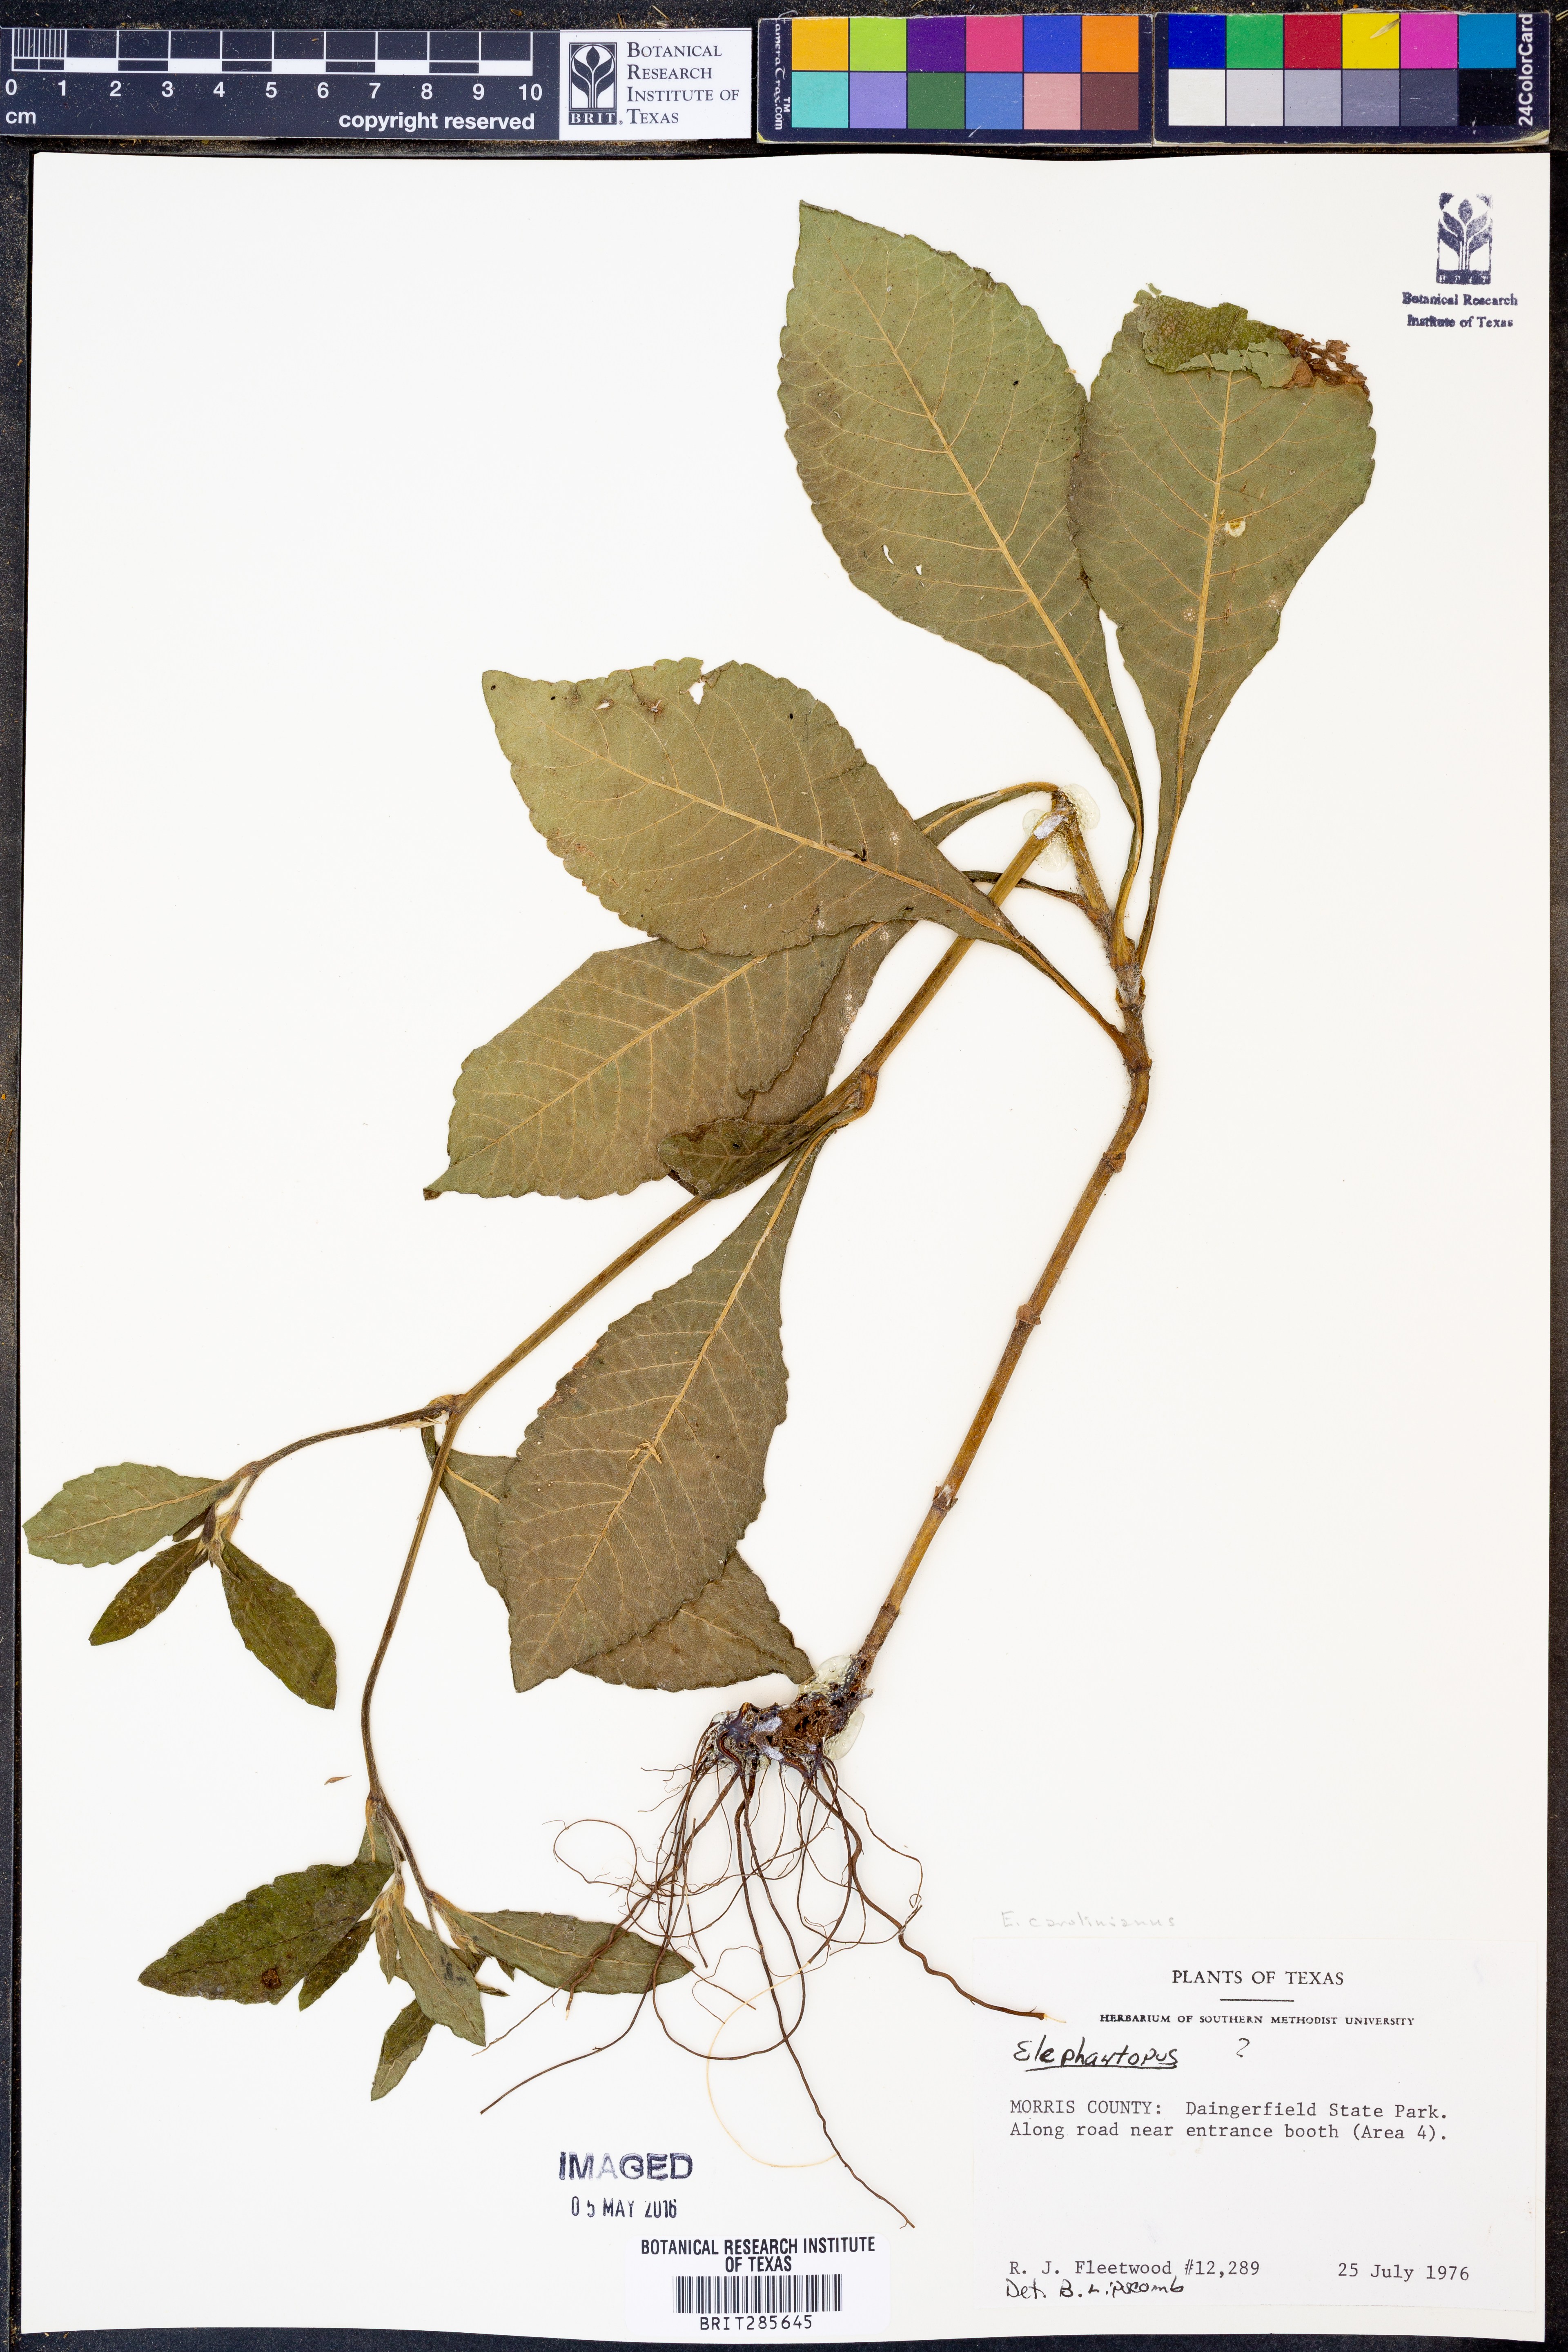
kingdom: Plantae
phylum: Tracheophyta
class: Magnoliopsida
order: Asterales
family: Asteraceae
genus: Elephantopus
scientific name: Elephantopus carolinianus
